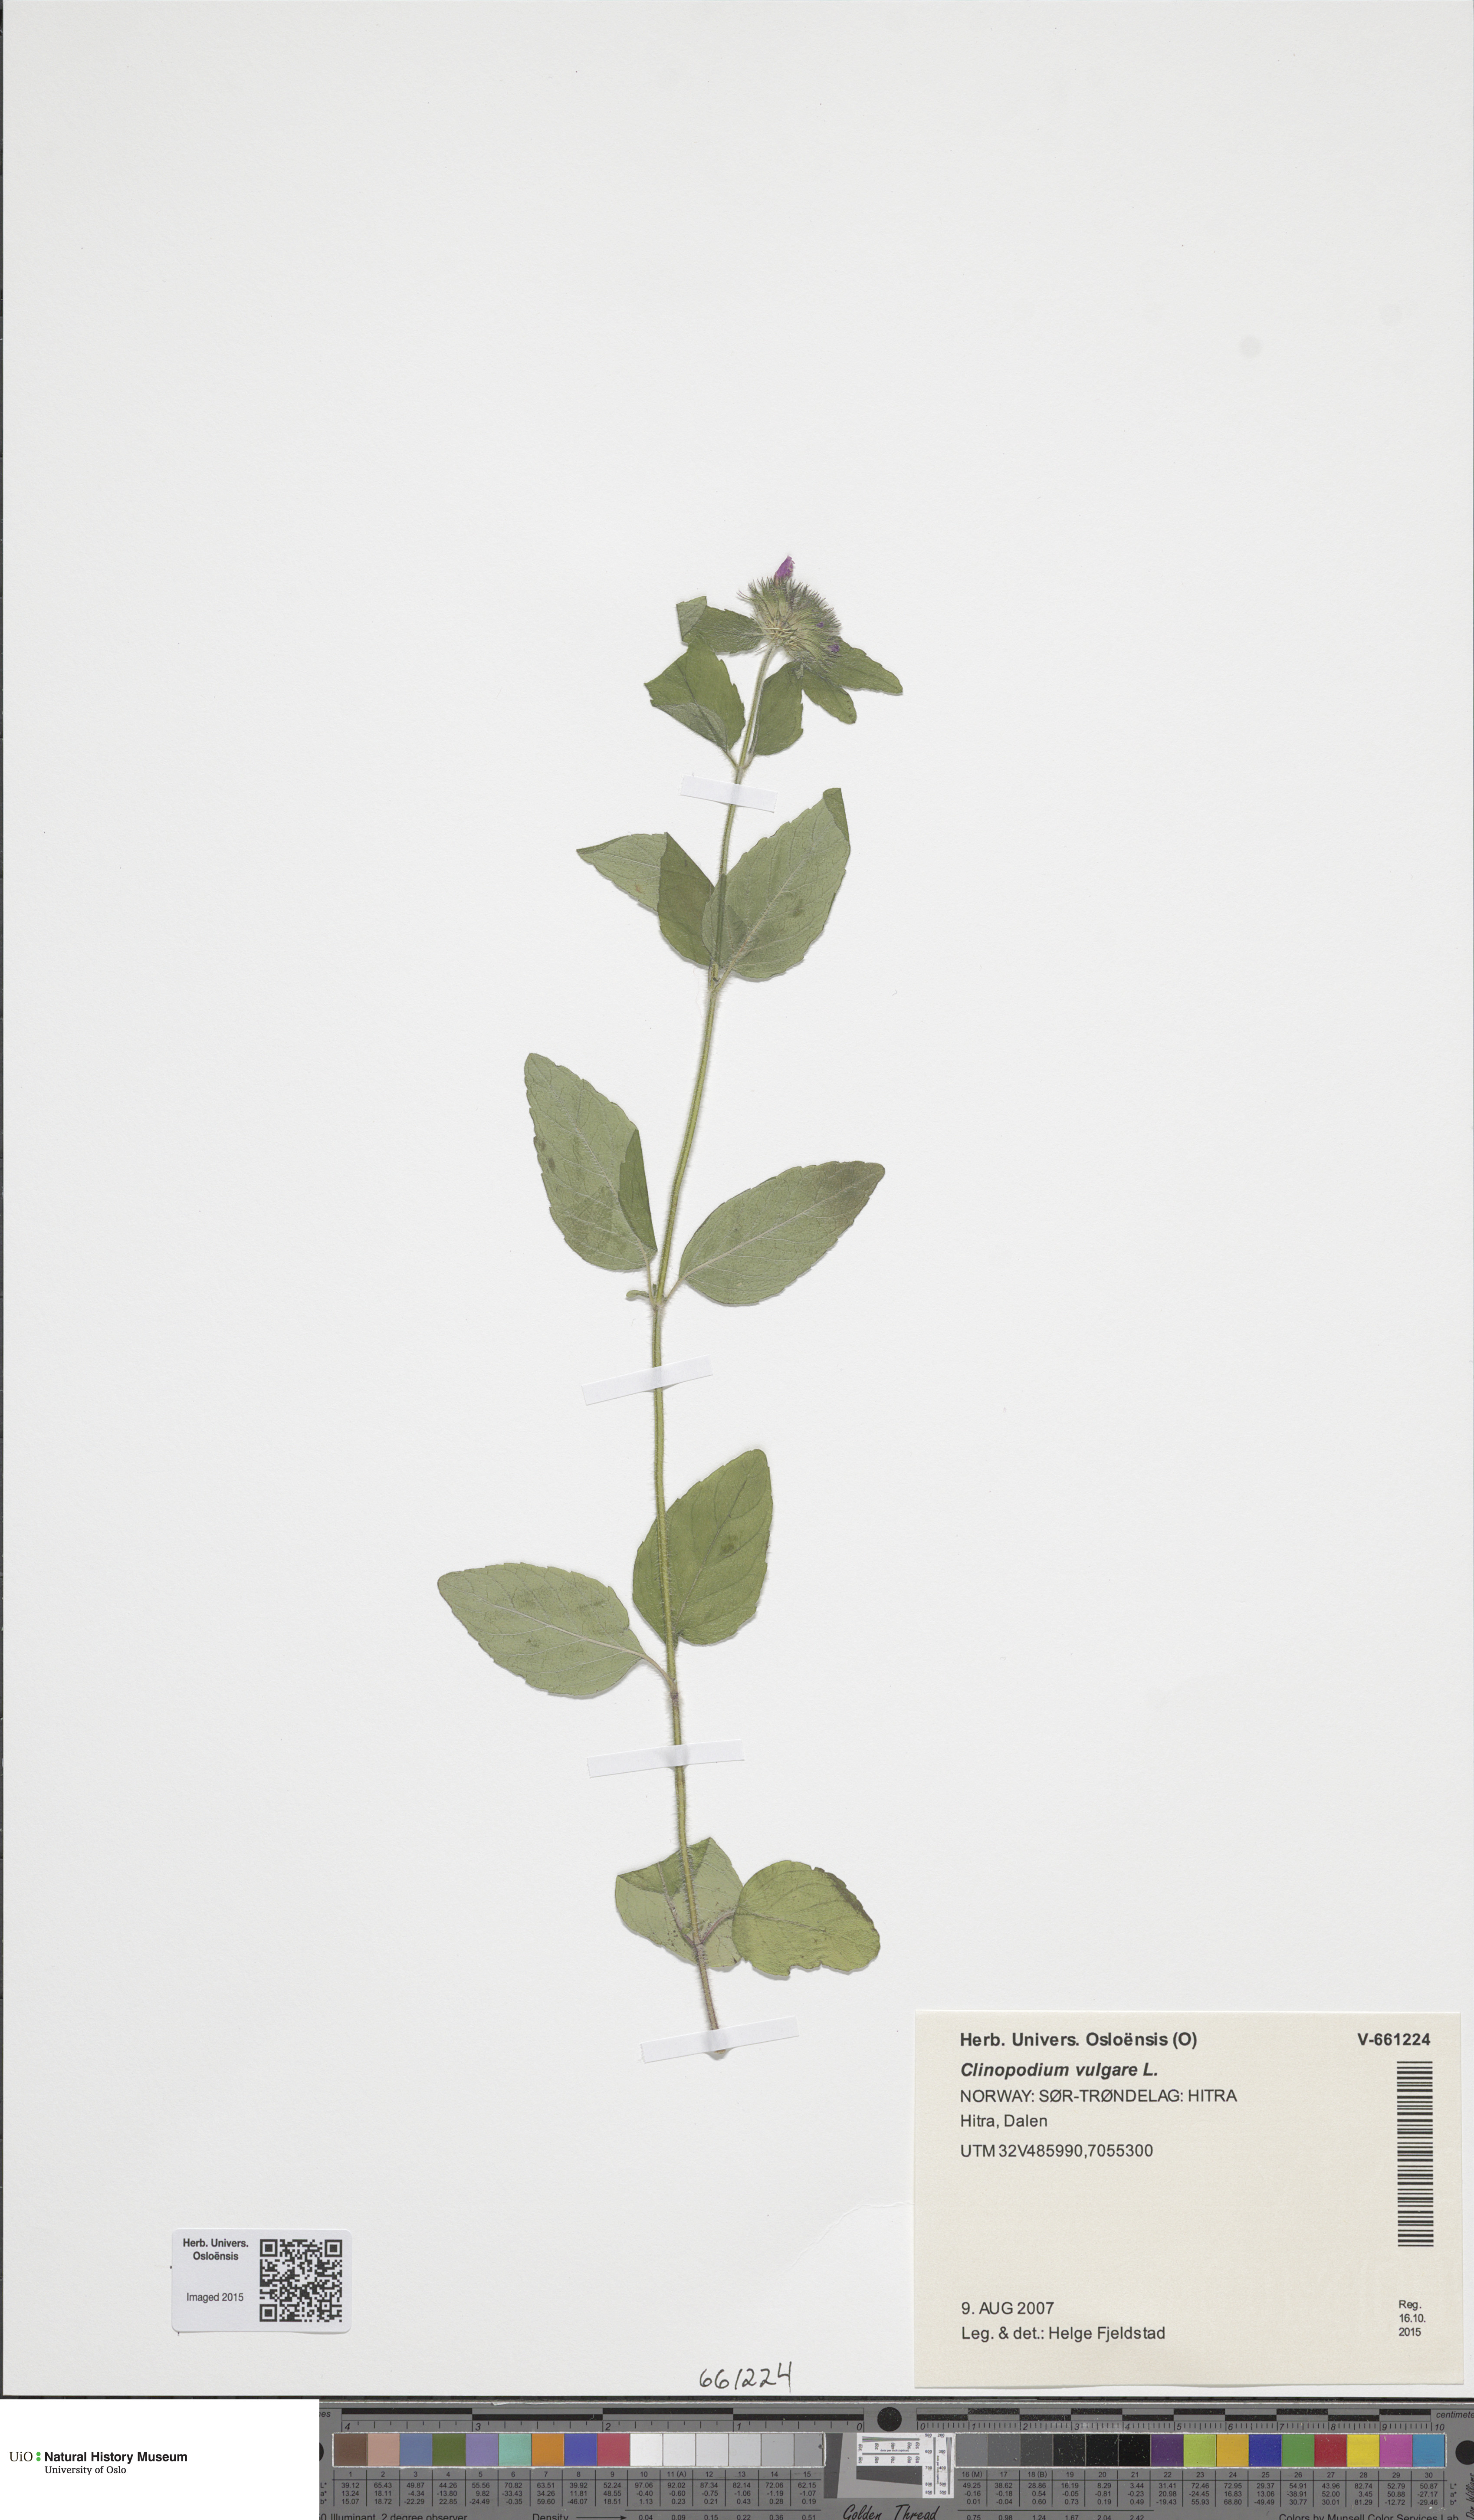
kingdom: Plantae
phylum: Tracheophyta
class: Magnoliopsida
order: Lamiales
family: Lamiaceae
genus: Clinopodium
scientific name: Clinopodium vulgare
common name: Wild basil
